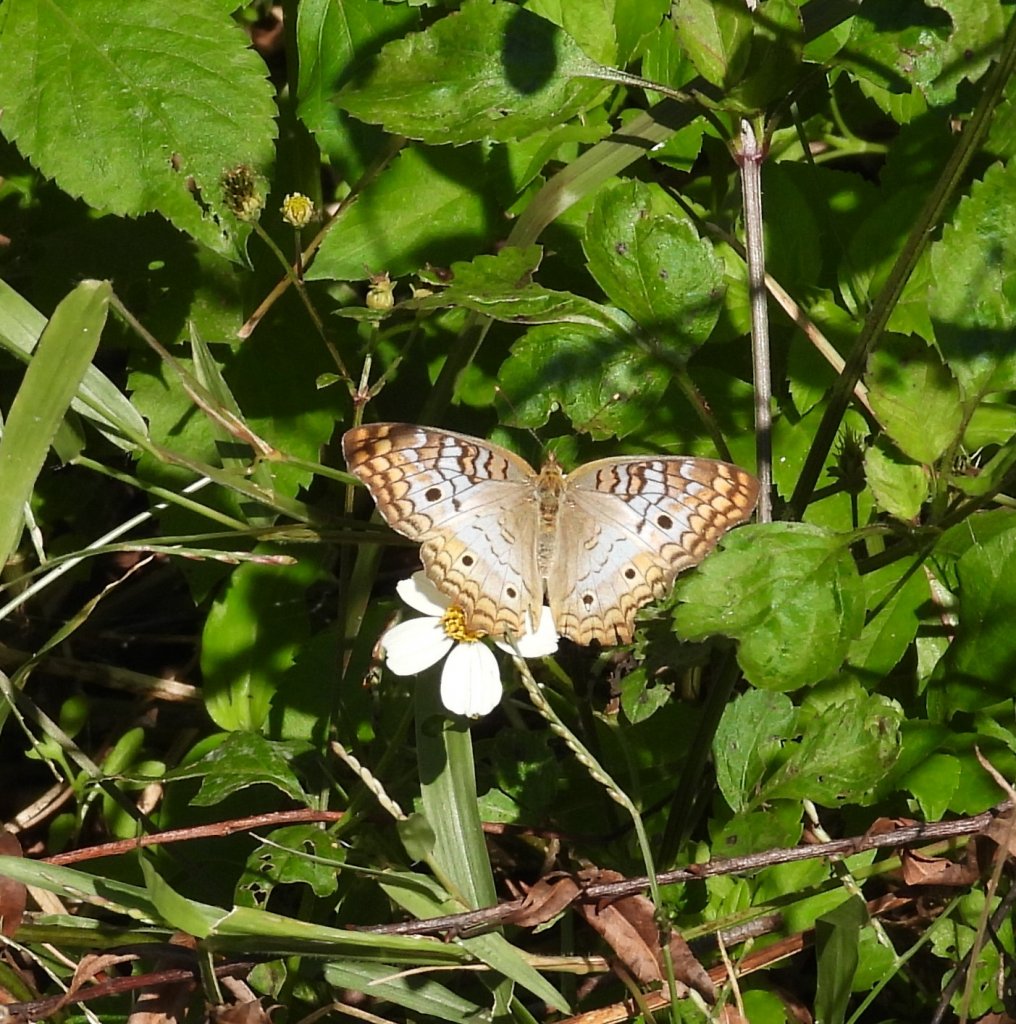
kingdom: Animalia
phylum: Arthropoda
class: Insecta
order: Lepidoptera
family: Nymphalidae
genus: Anartia
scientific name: Anartia jatrophae
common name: White Peacock
